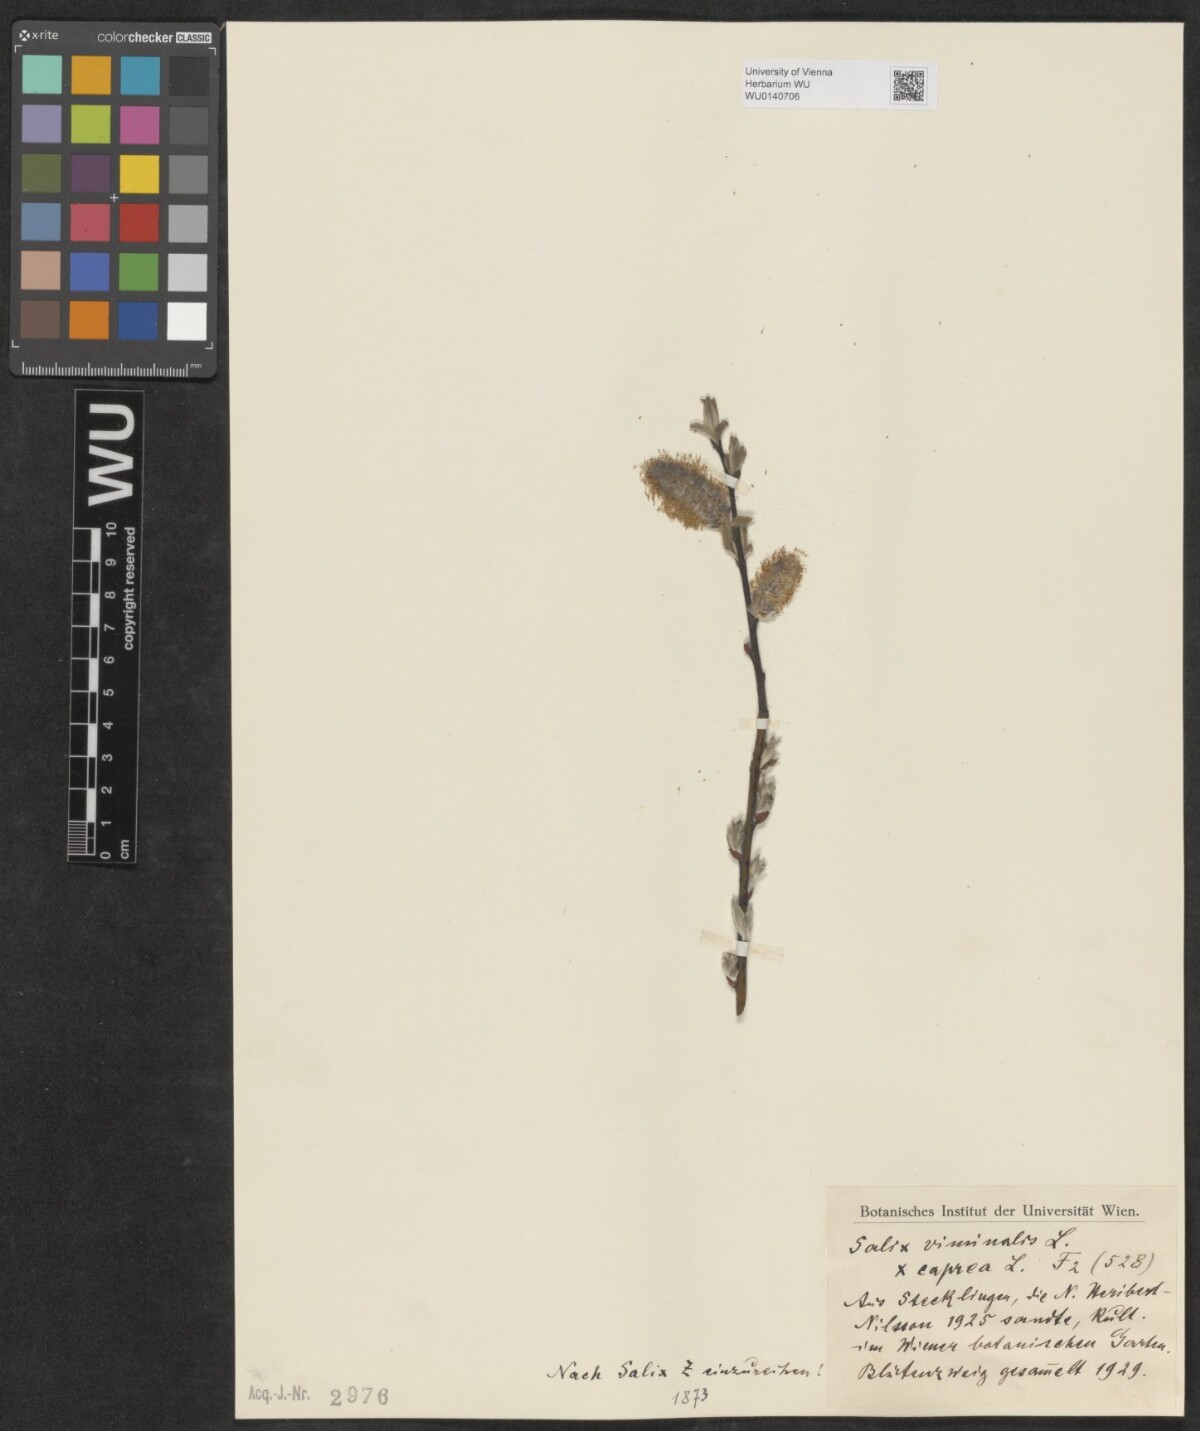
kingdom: Plantae
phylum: Tracheophyta
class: Magnoliopsida
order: Malpighiales
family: Salicaceae
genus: Salix
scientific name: Salix
